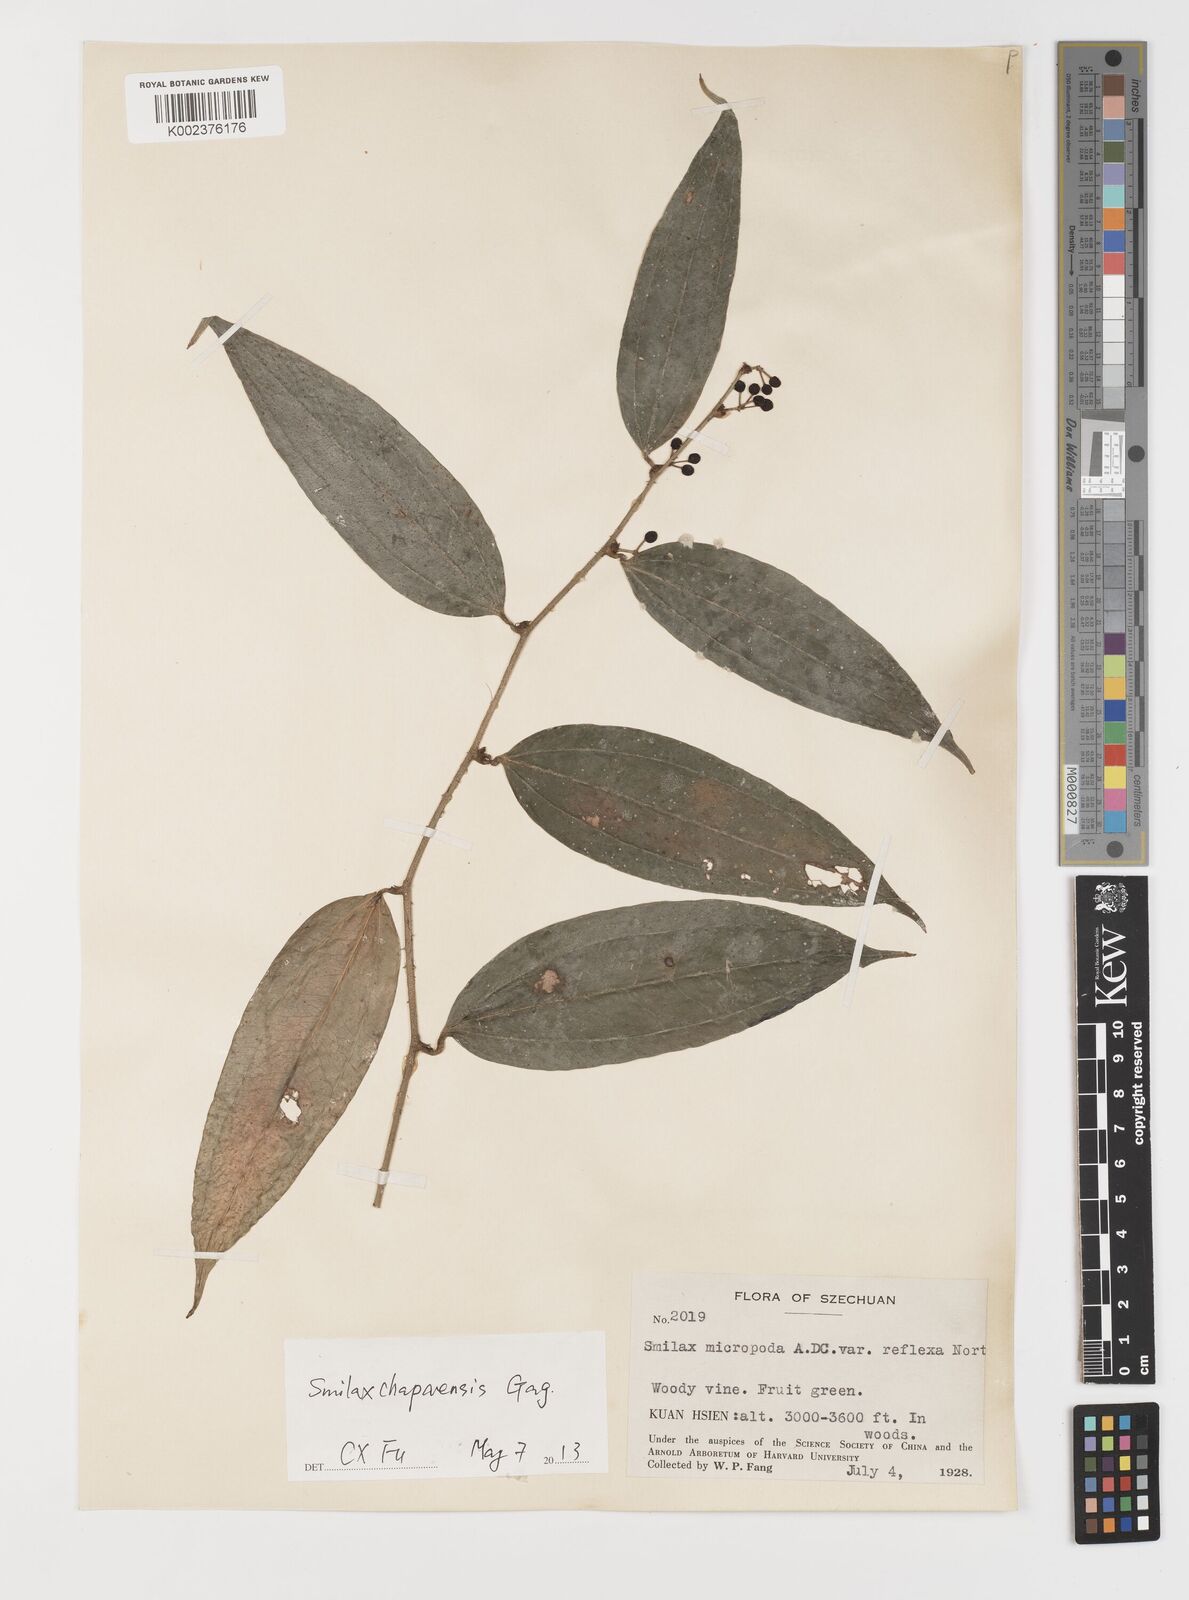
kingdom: Plantae
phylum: Tracheophyta
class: Liliopsida
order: Liliales
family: Smilacaceae
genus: Smilax
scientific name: Smilax chapaensis
